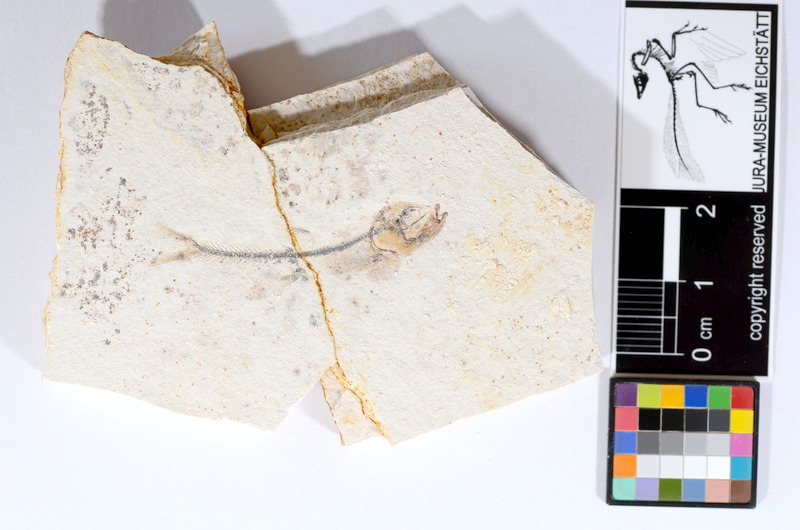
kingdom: Animalia
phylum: Chordata
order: Salmoniformes
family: Orthogonikleithridae
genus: Orthogonikleithrus
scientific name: Orthogonikleithrus hoelli
